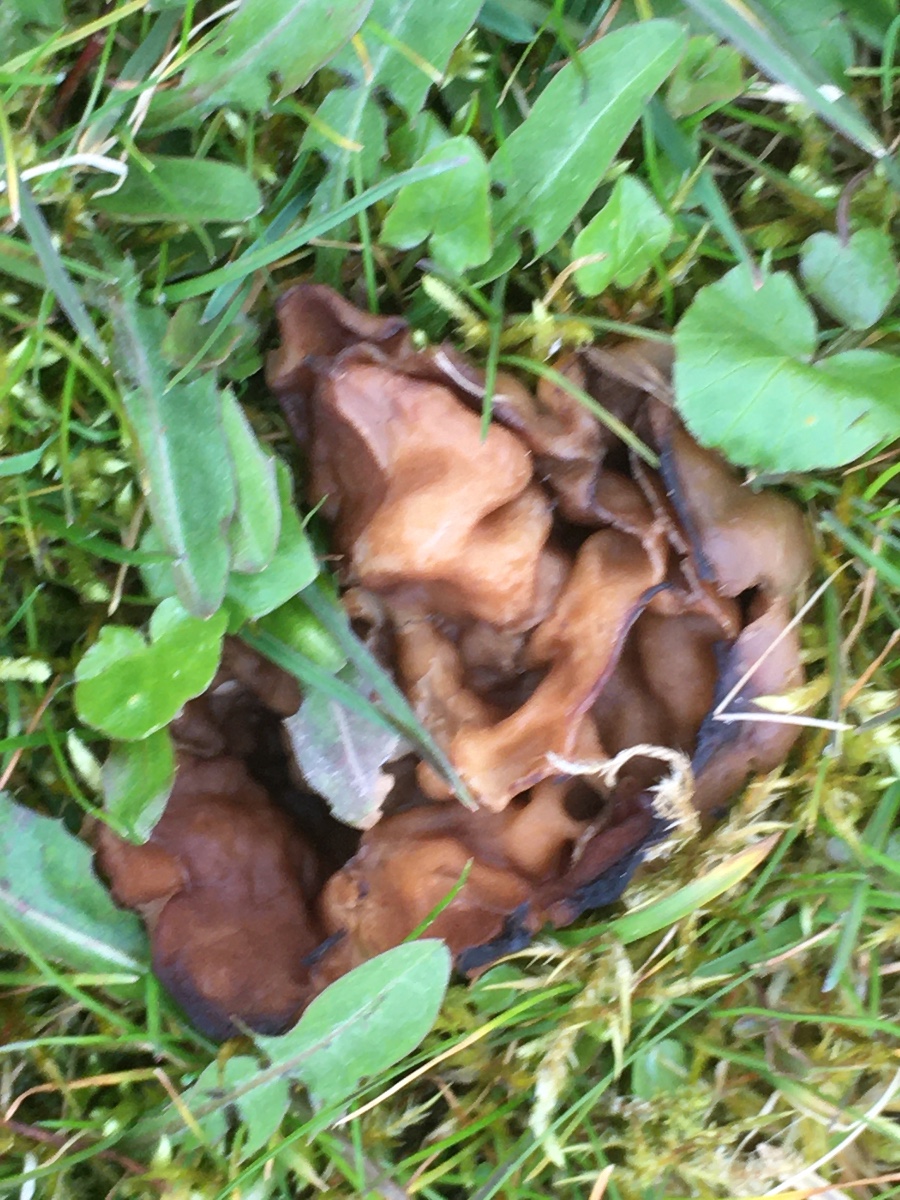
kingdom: Fungi
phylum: Ascomycota
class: Pezizomycetes
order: Pezizales
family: Morchellaceae
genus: Disciotis
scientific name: Disciotis venosa
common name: klor-bægermorkel
